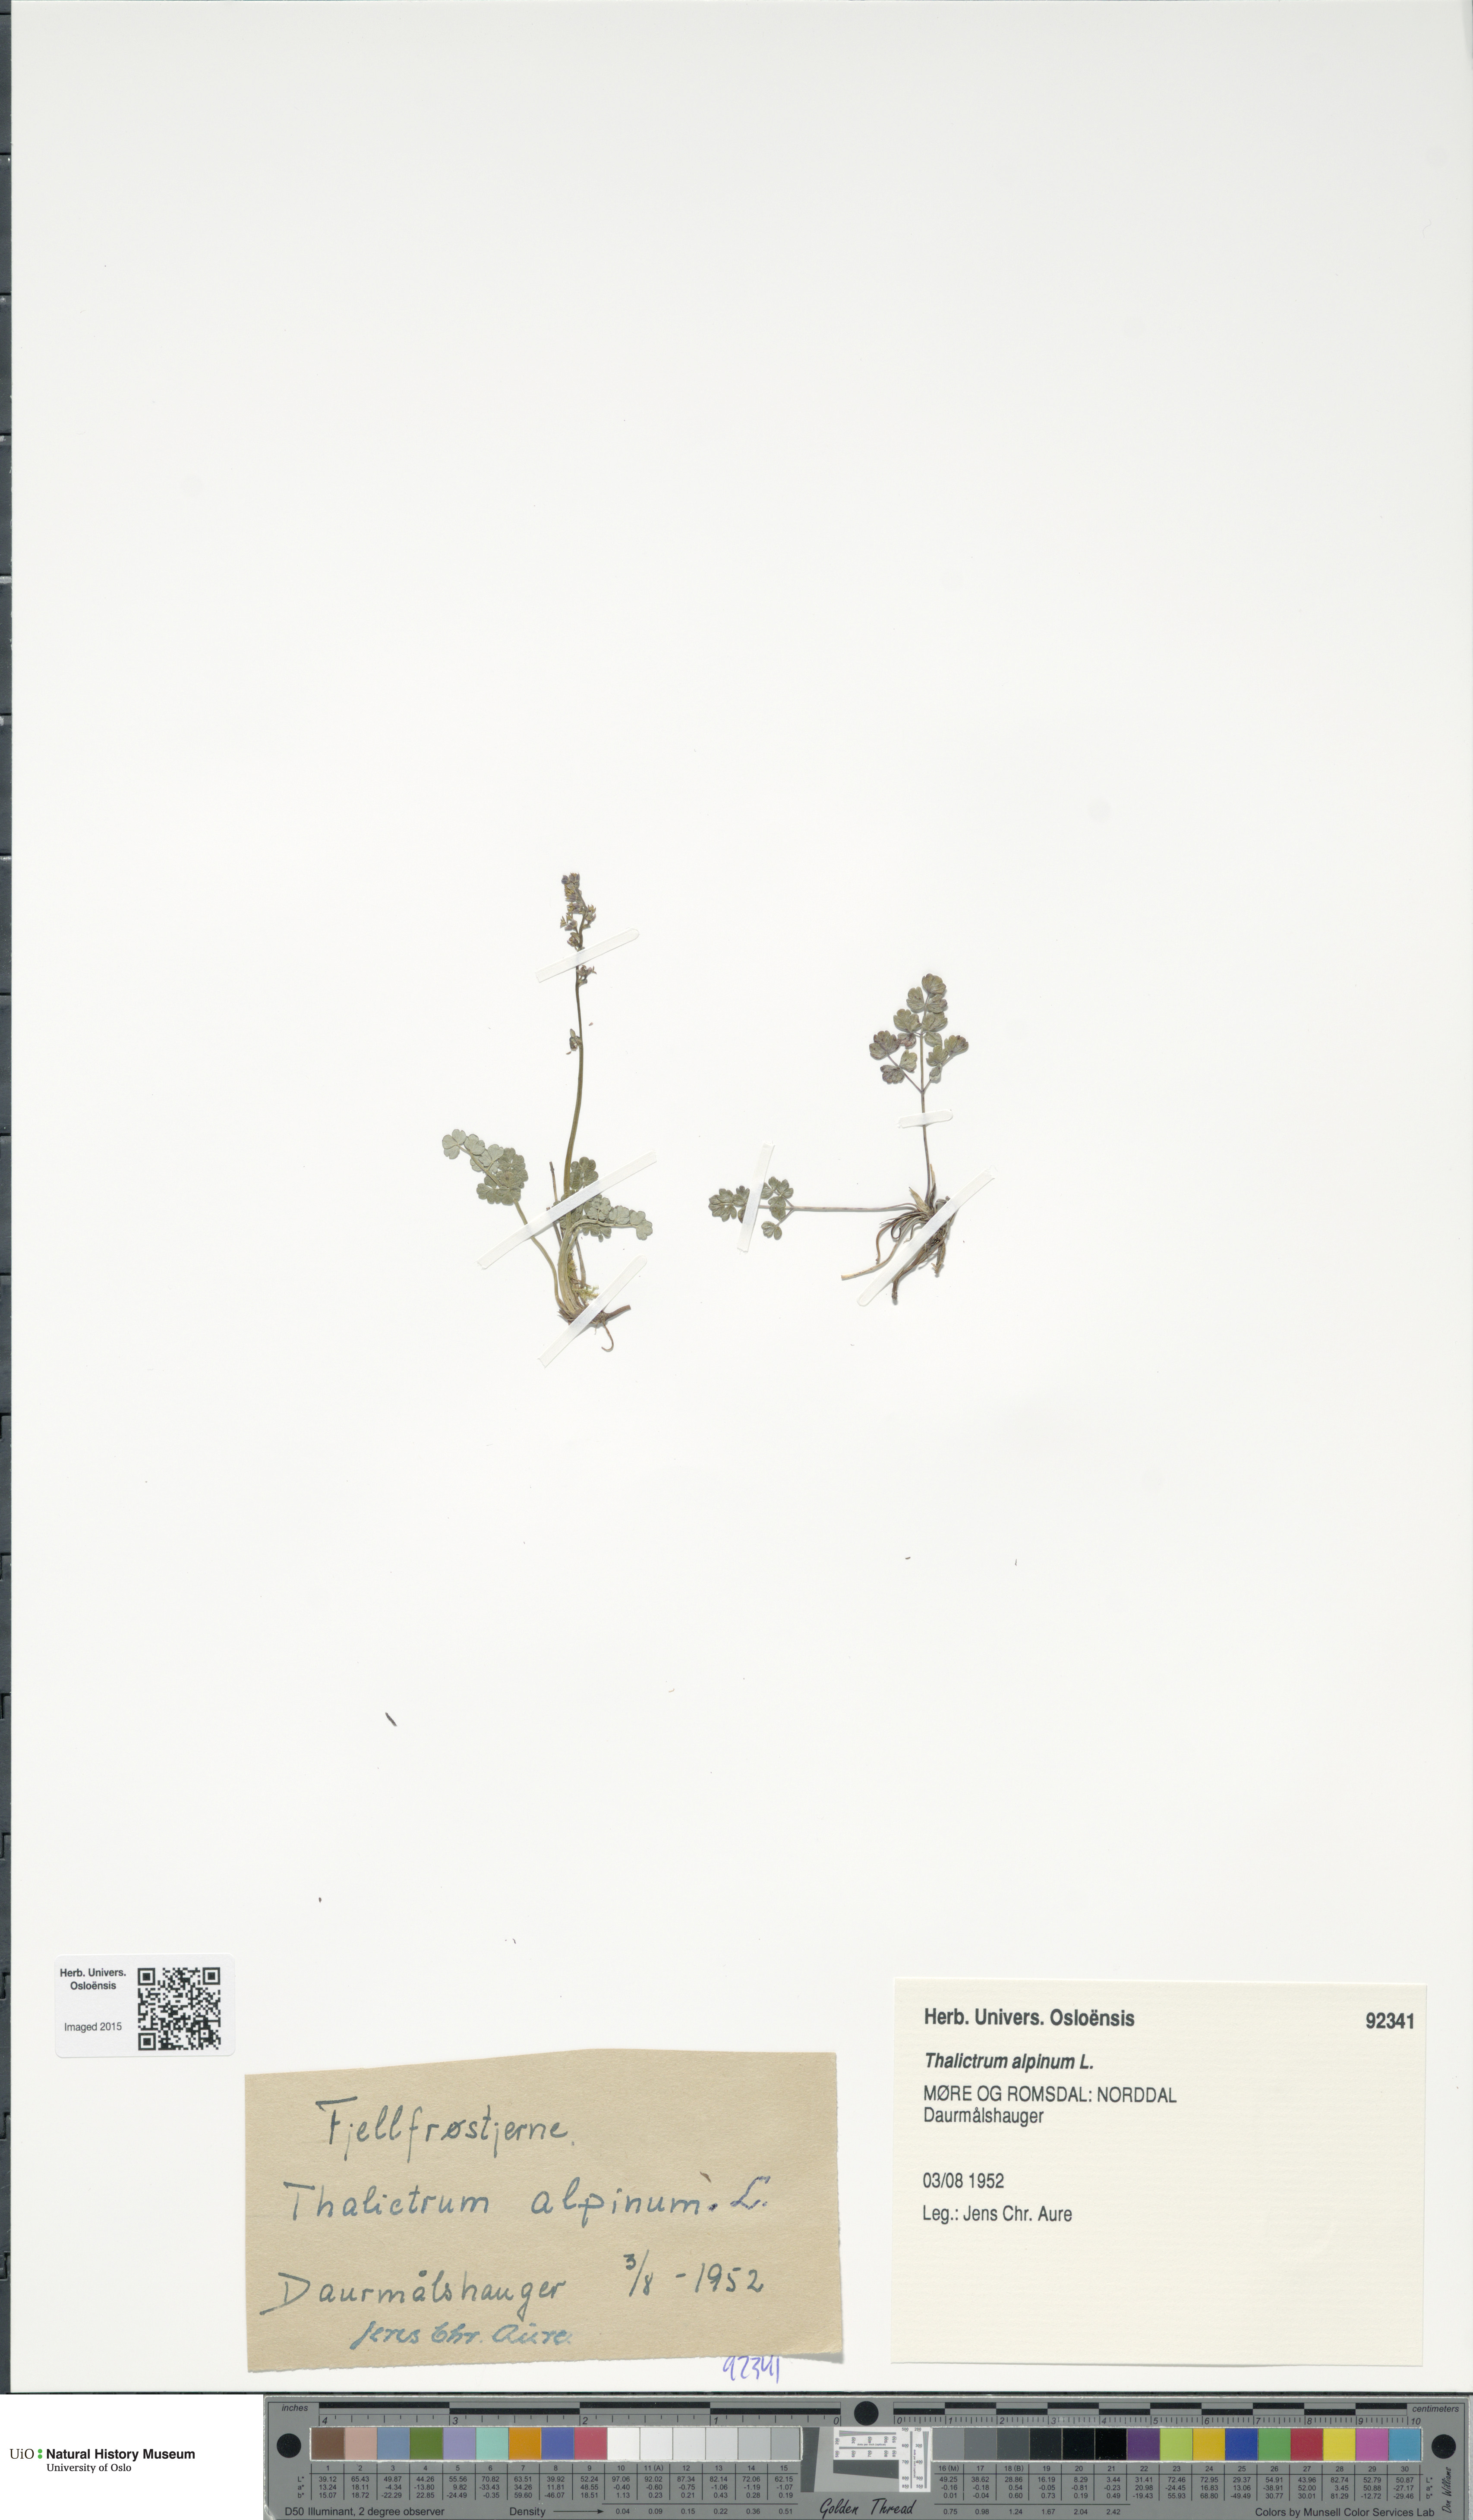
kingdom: Plantae
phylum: Tracheophyta
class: Magnoliopsida
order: Ranunculales
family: Ranunculaceae
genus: Thalictrum
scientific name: Thalictrum alpinum
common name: Alpine meadow-rue
